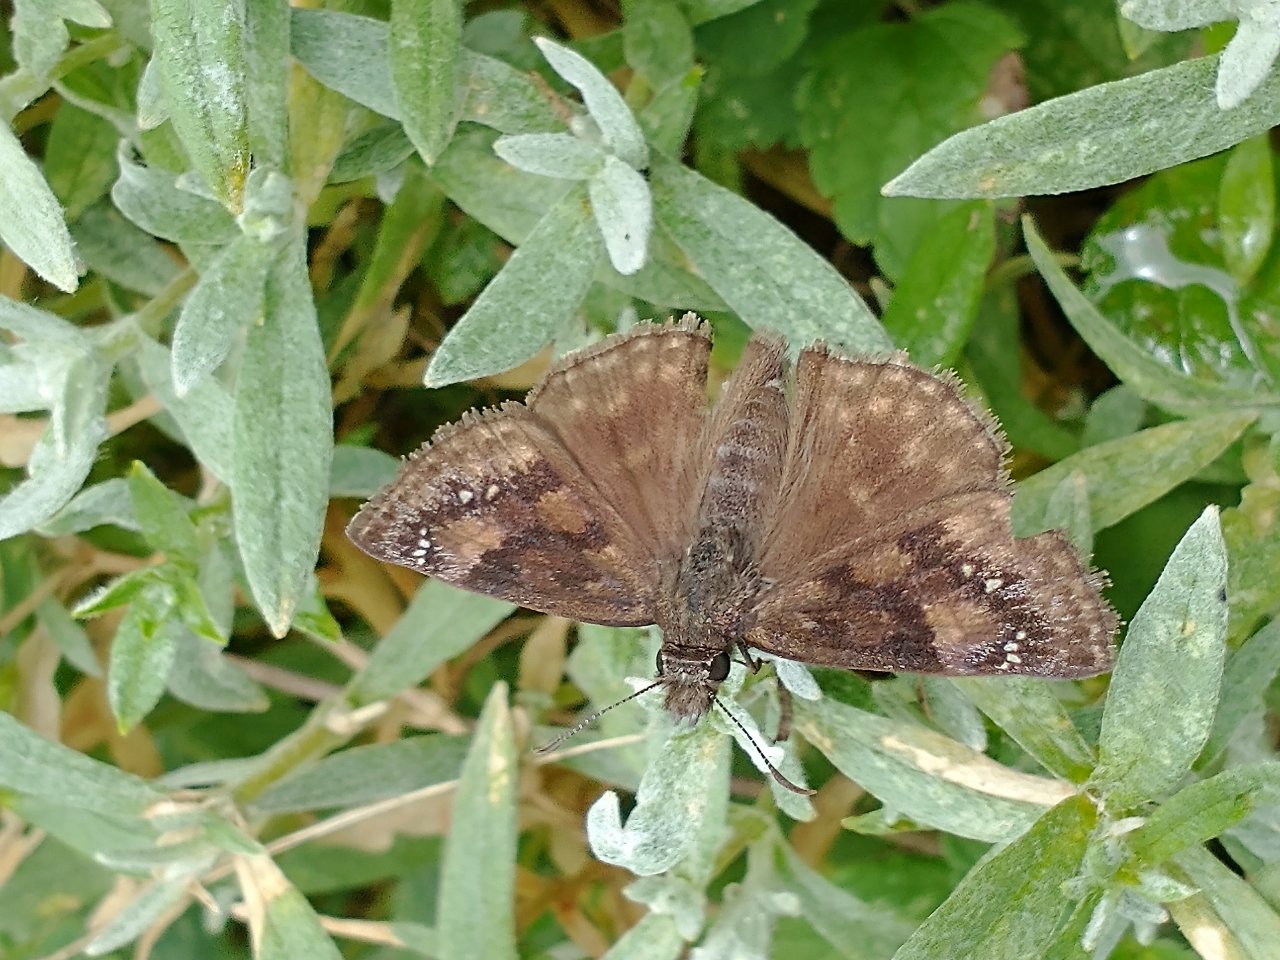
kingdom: Animalia
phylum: Arthropoda
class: Insecta
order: Lepidoptera
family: Hesperiidae
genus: Gesta
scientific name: Gesta
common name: Wild Indigo Duskywing
